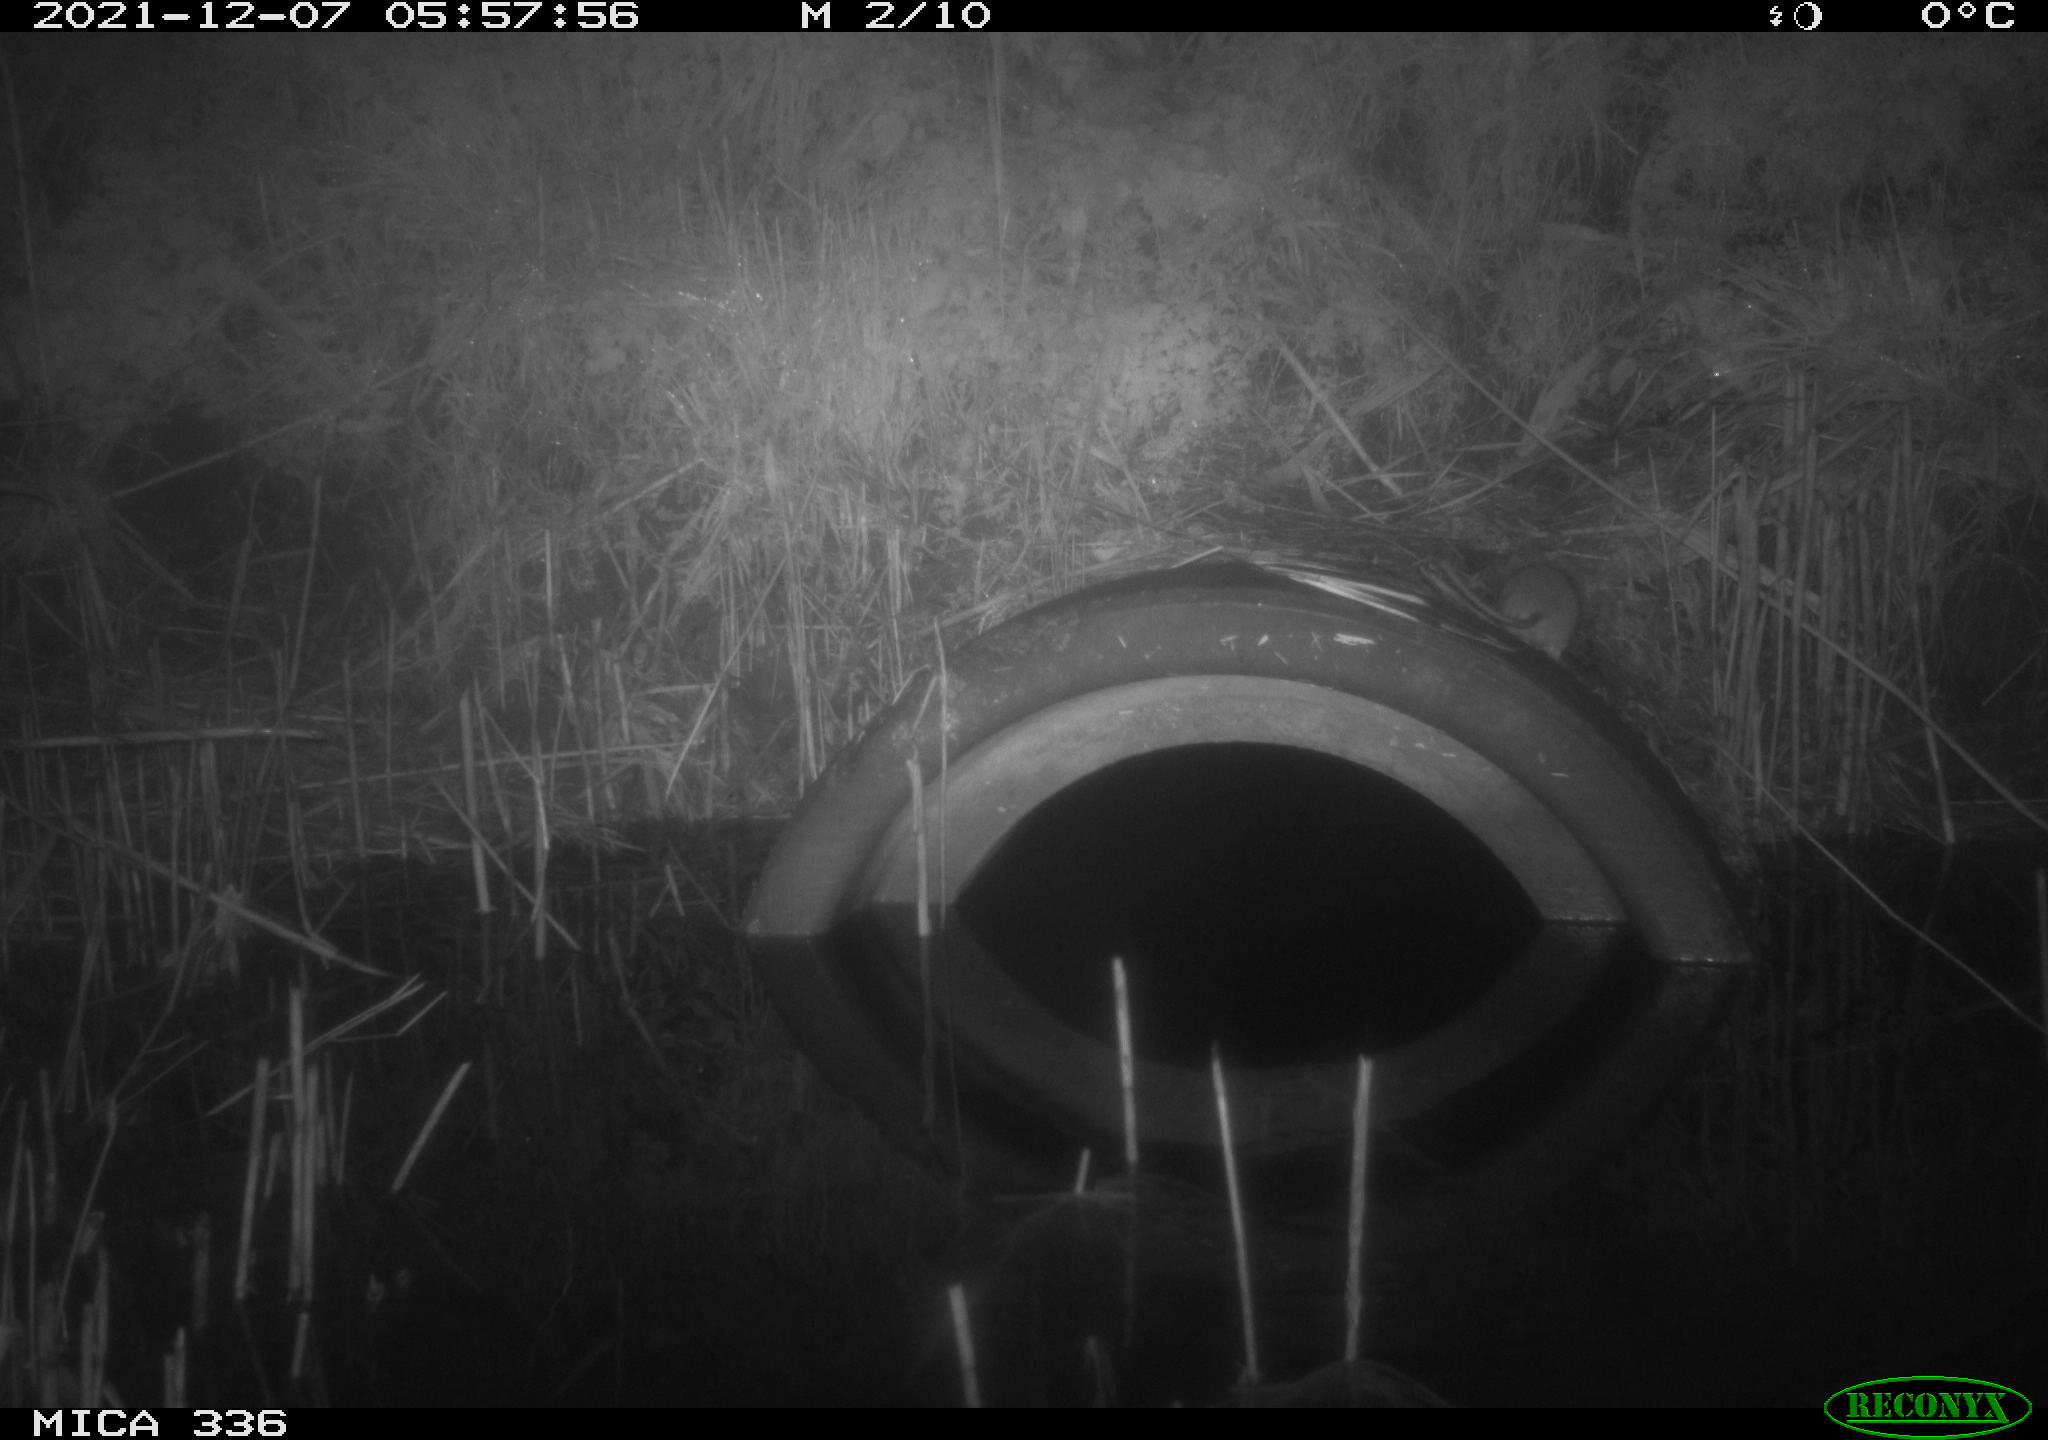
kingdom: Animalia
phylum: Chordata
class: Mammalia
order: Rodentia
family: Muridae
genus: Rattus
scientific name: Rattus norvegicus
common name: Brown rat
